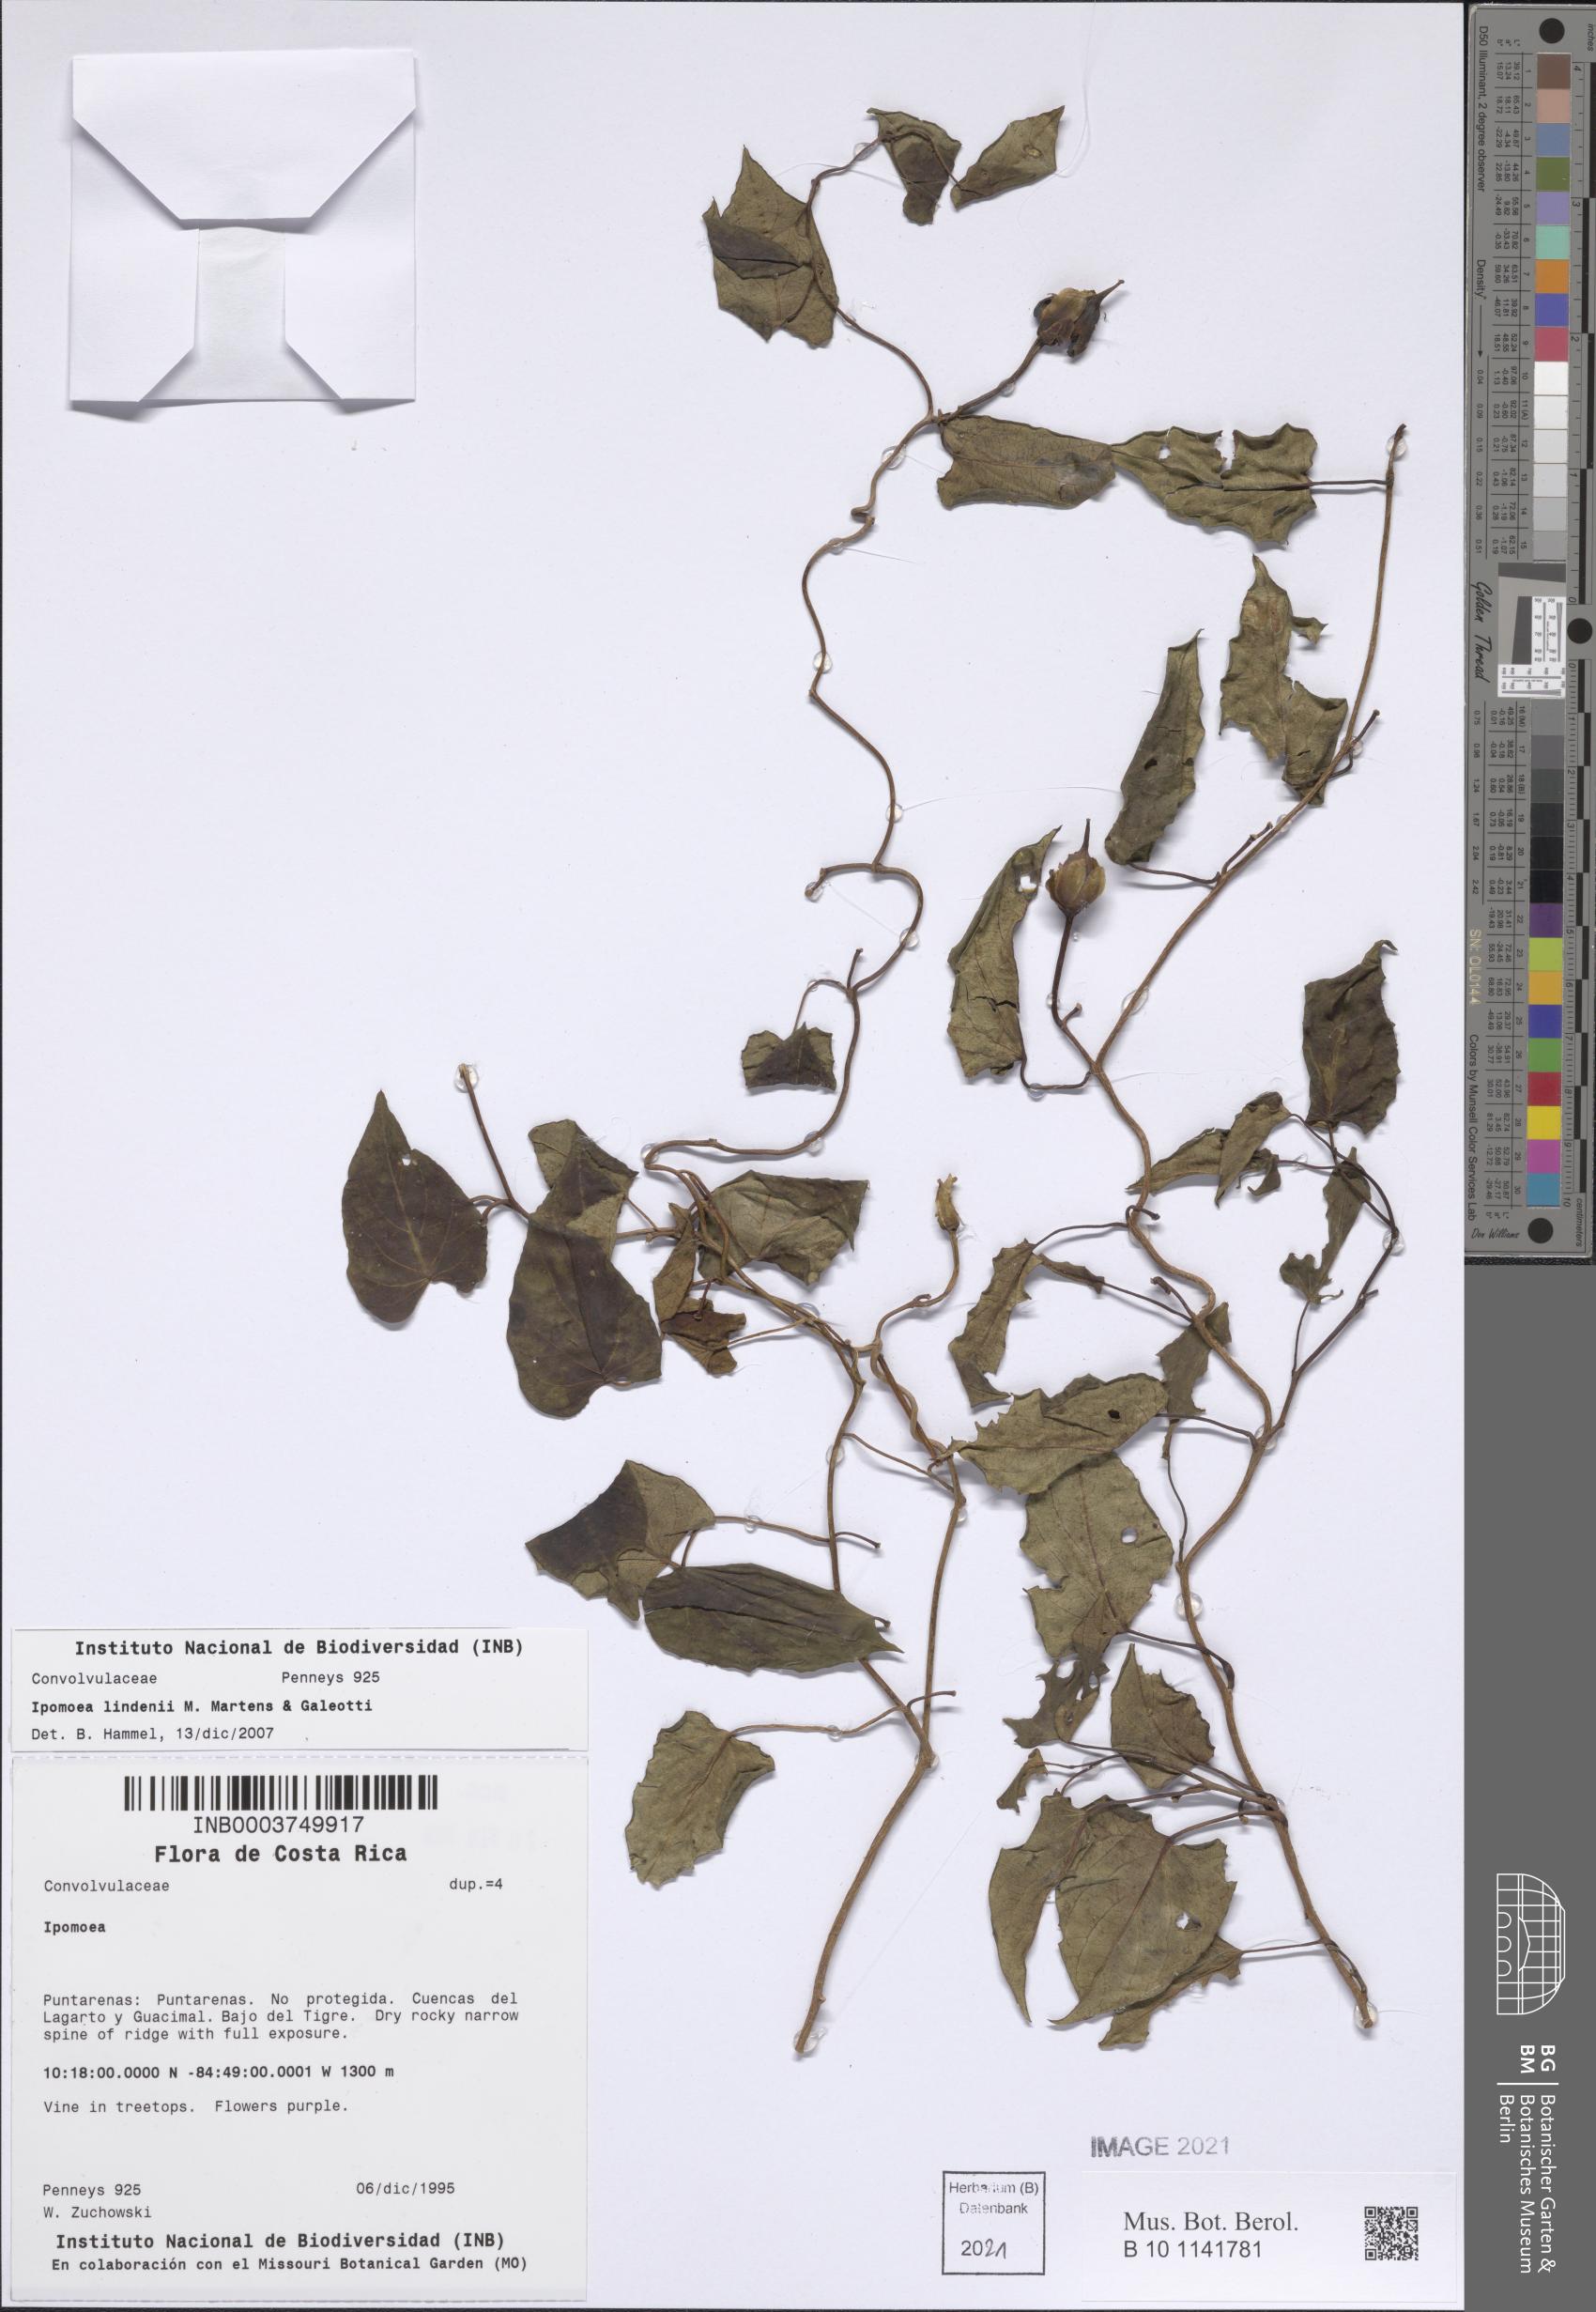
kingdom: Plantae
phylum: Tracheophyta
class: Magnoliopsida
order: Solanales
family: Convolvulaceae
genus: Ipomoea
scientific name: Ipomoea lindenii
